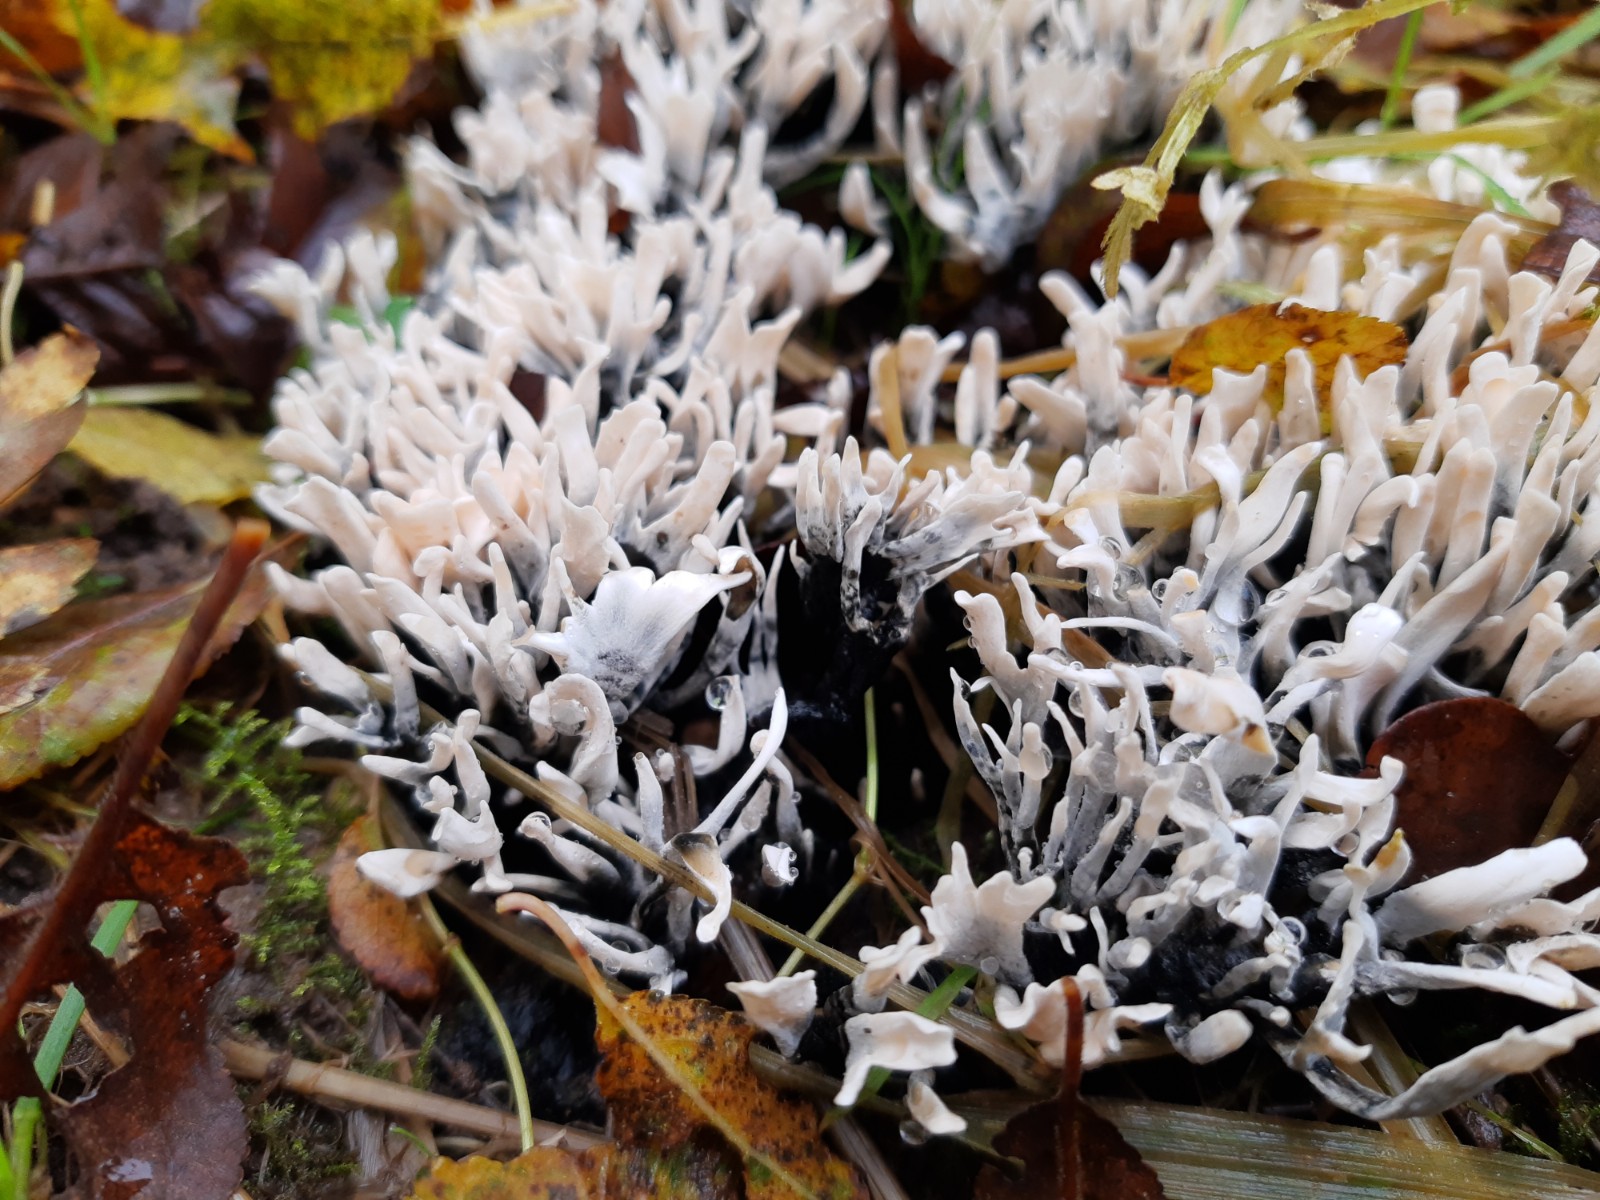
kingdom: Fungi
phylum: Ascomycota
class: Sordariomycetes
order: Xylariales
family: Xylariaceae
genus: Xylaria
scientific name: Xylaria hypoxylon
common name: grenet stødsvamp
